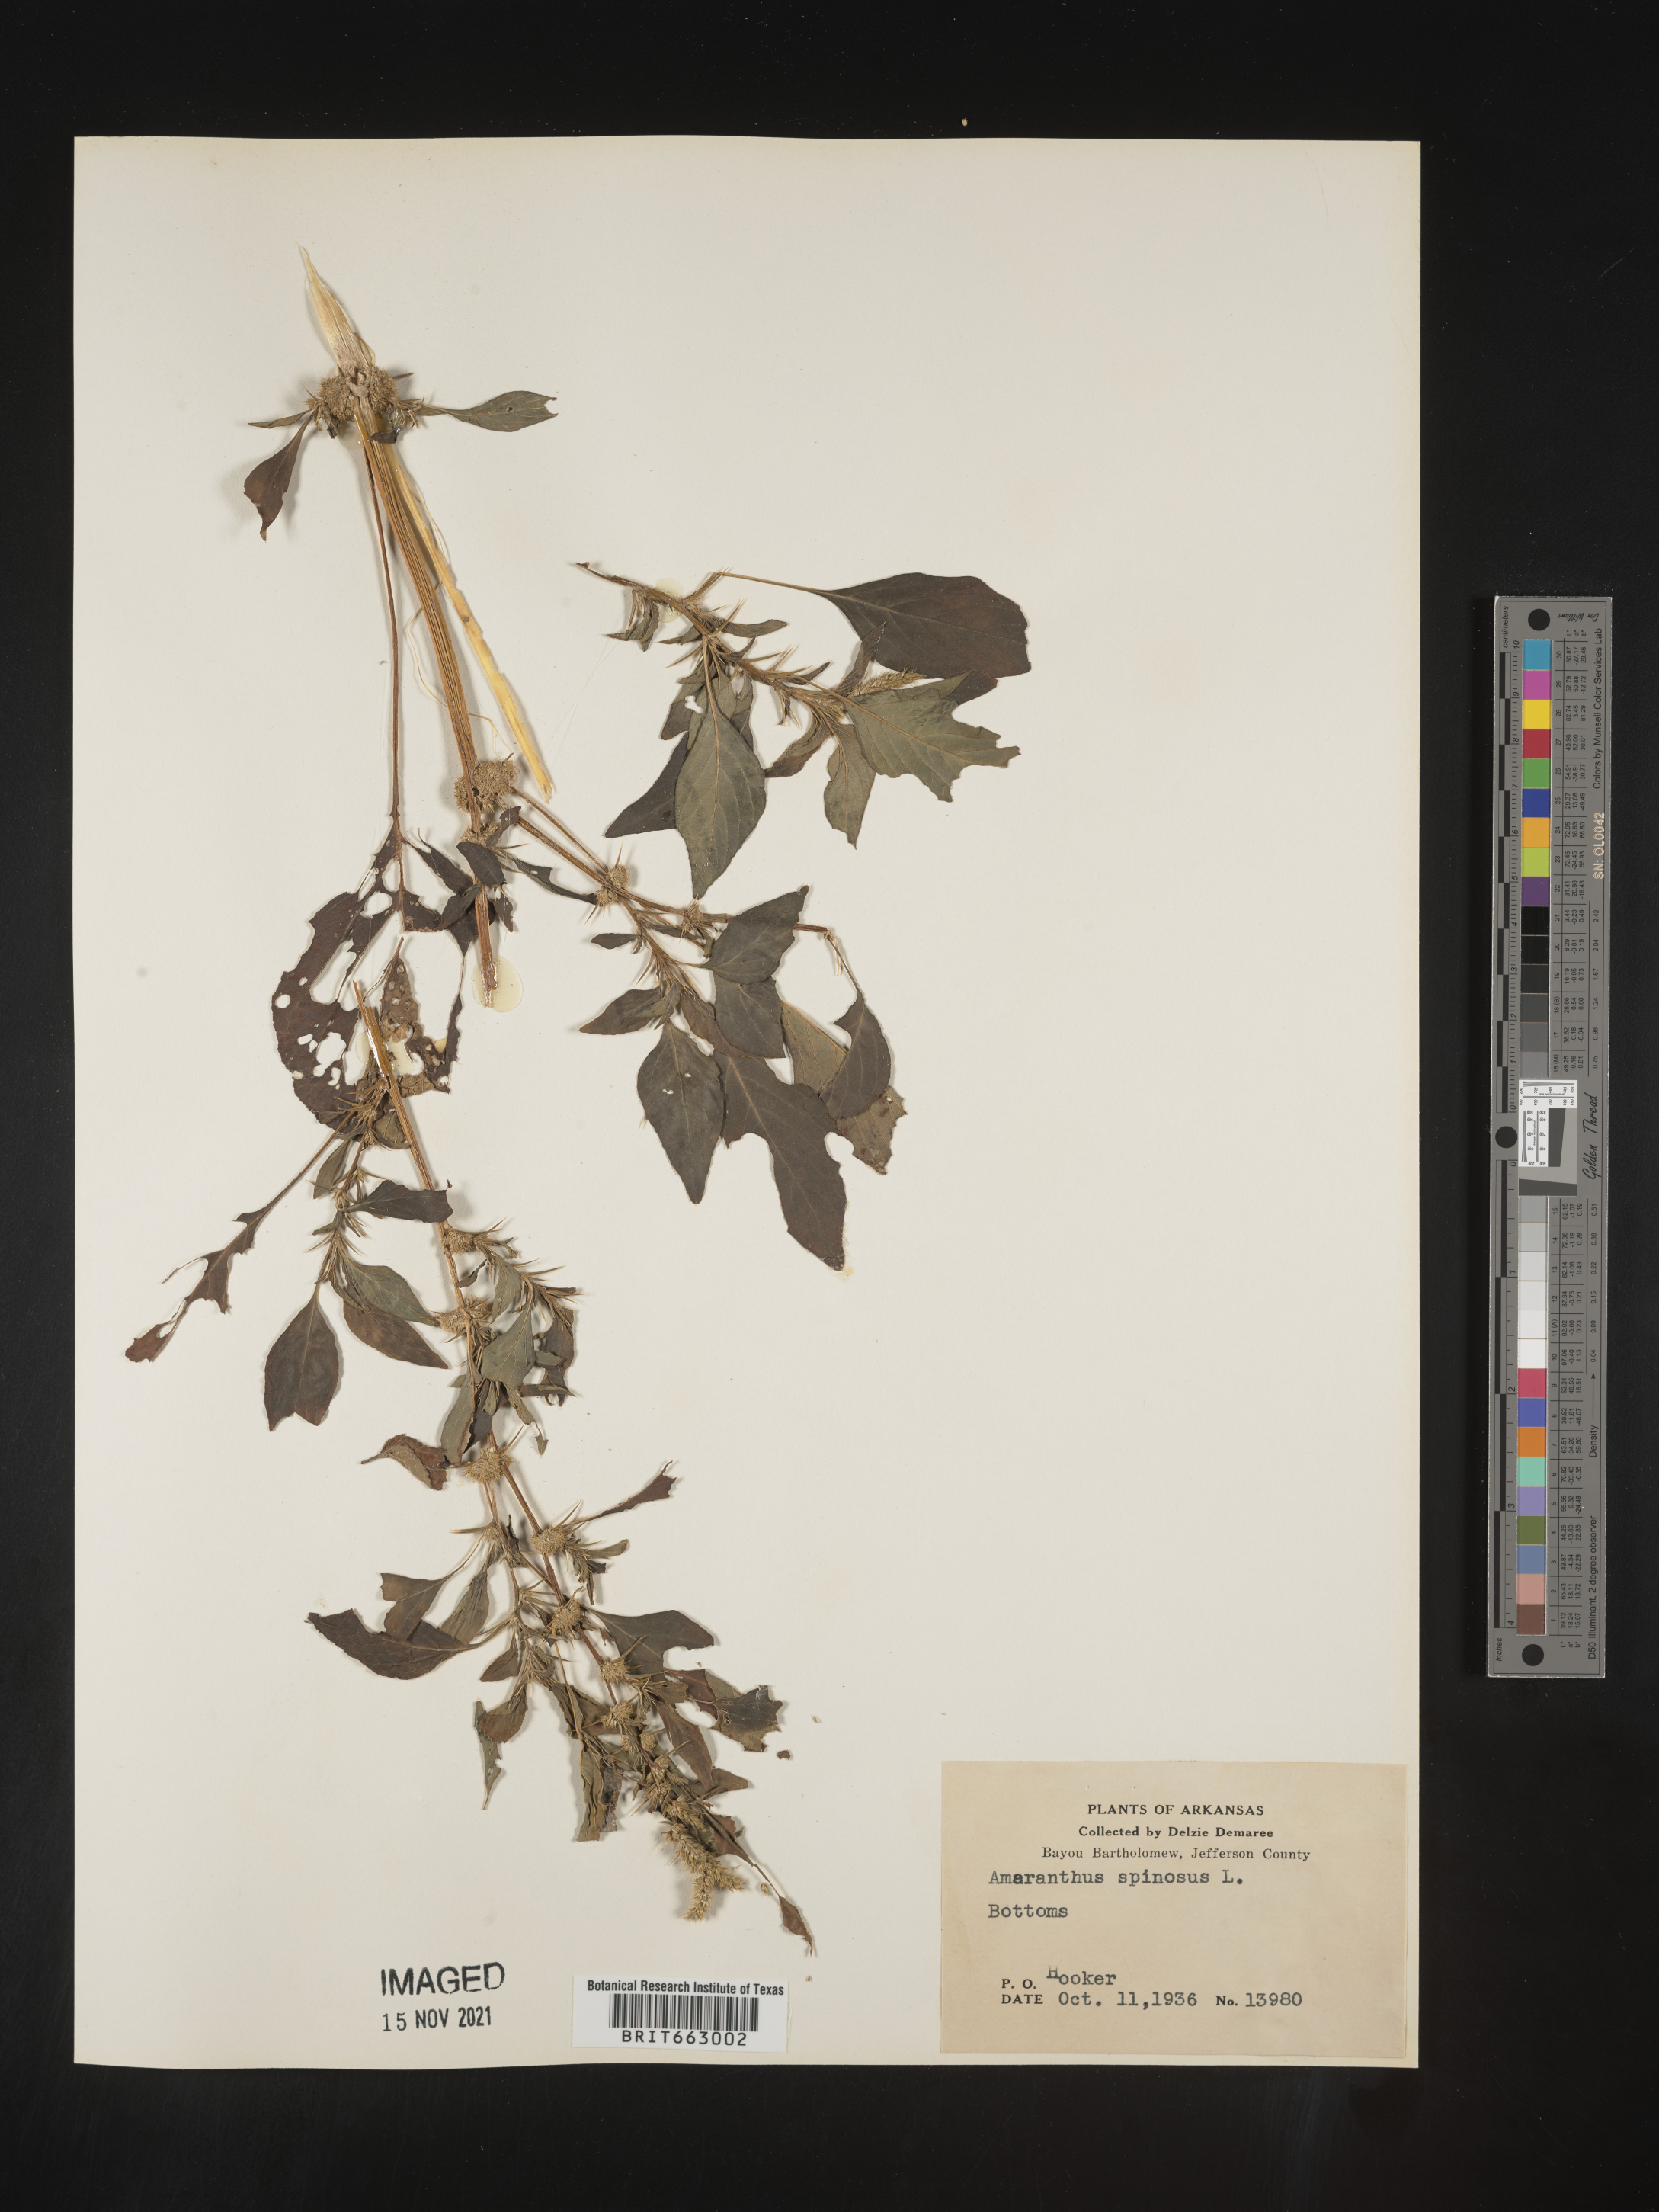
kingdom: Plantae
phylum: Tracheophyta
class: Magnoliopsida
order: Caryophyllales
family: Amaranthaceae
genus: Amaranthus
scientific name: Amaranthus spinosus
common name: Spiny amaranth
